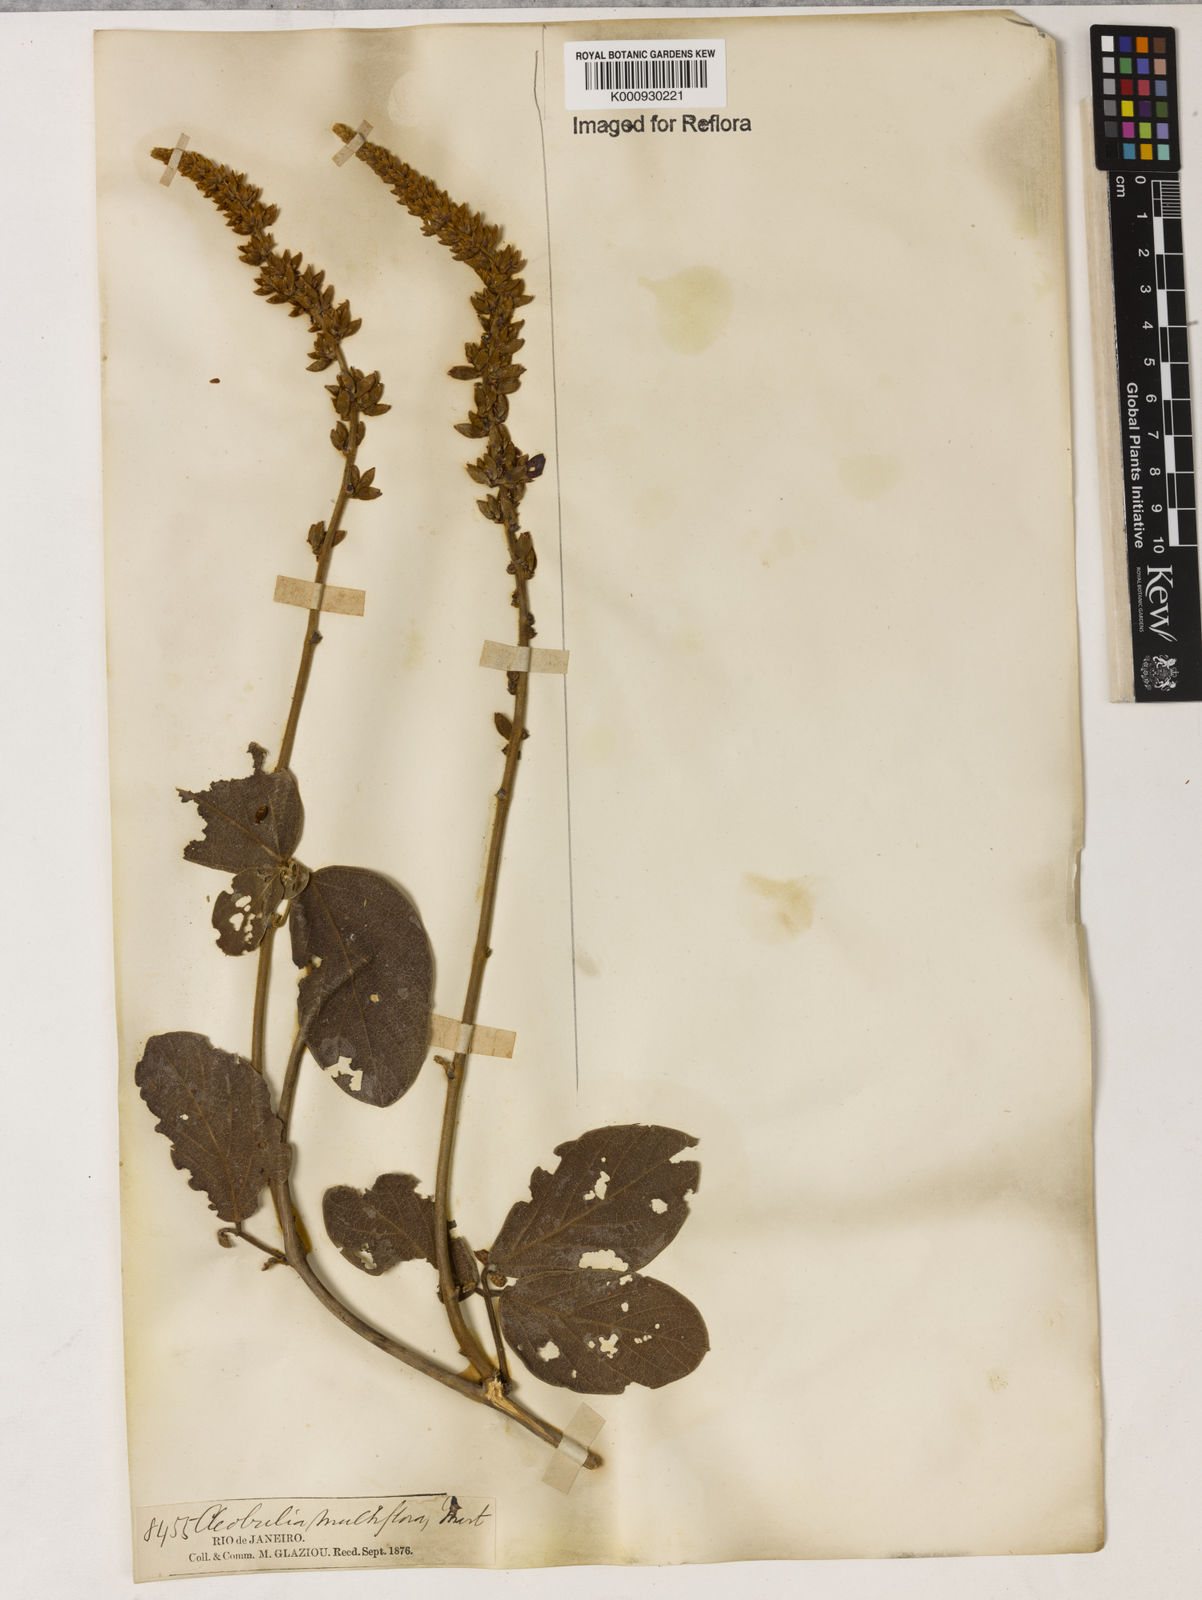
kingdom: Plantae
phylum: Tracheophyta
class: Magnoliopsida
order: Fabales
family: Fabaceae
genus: Cleobulia
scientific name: Cleobulia coccinea
